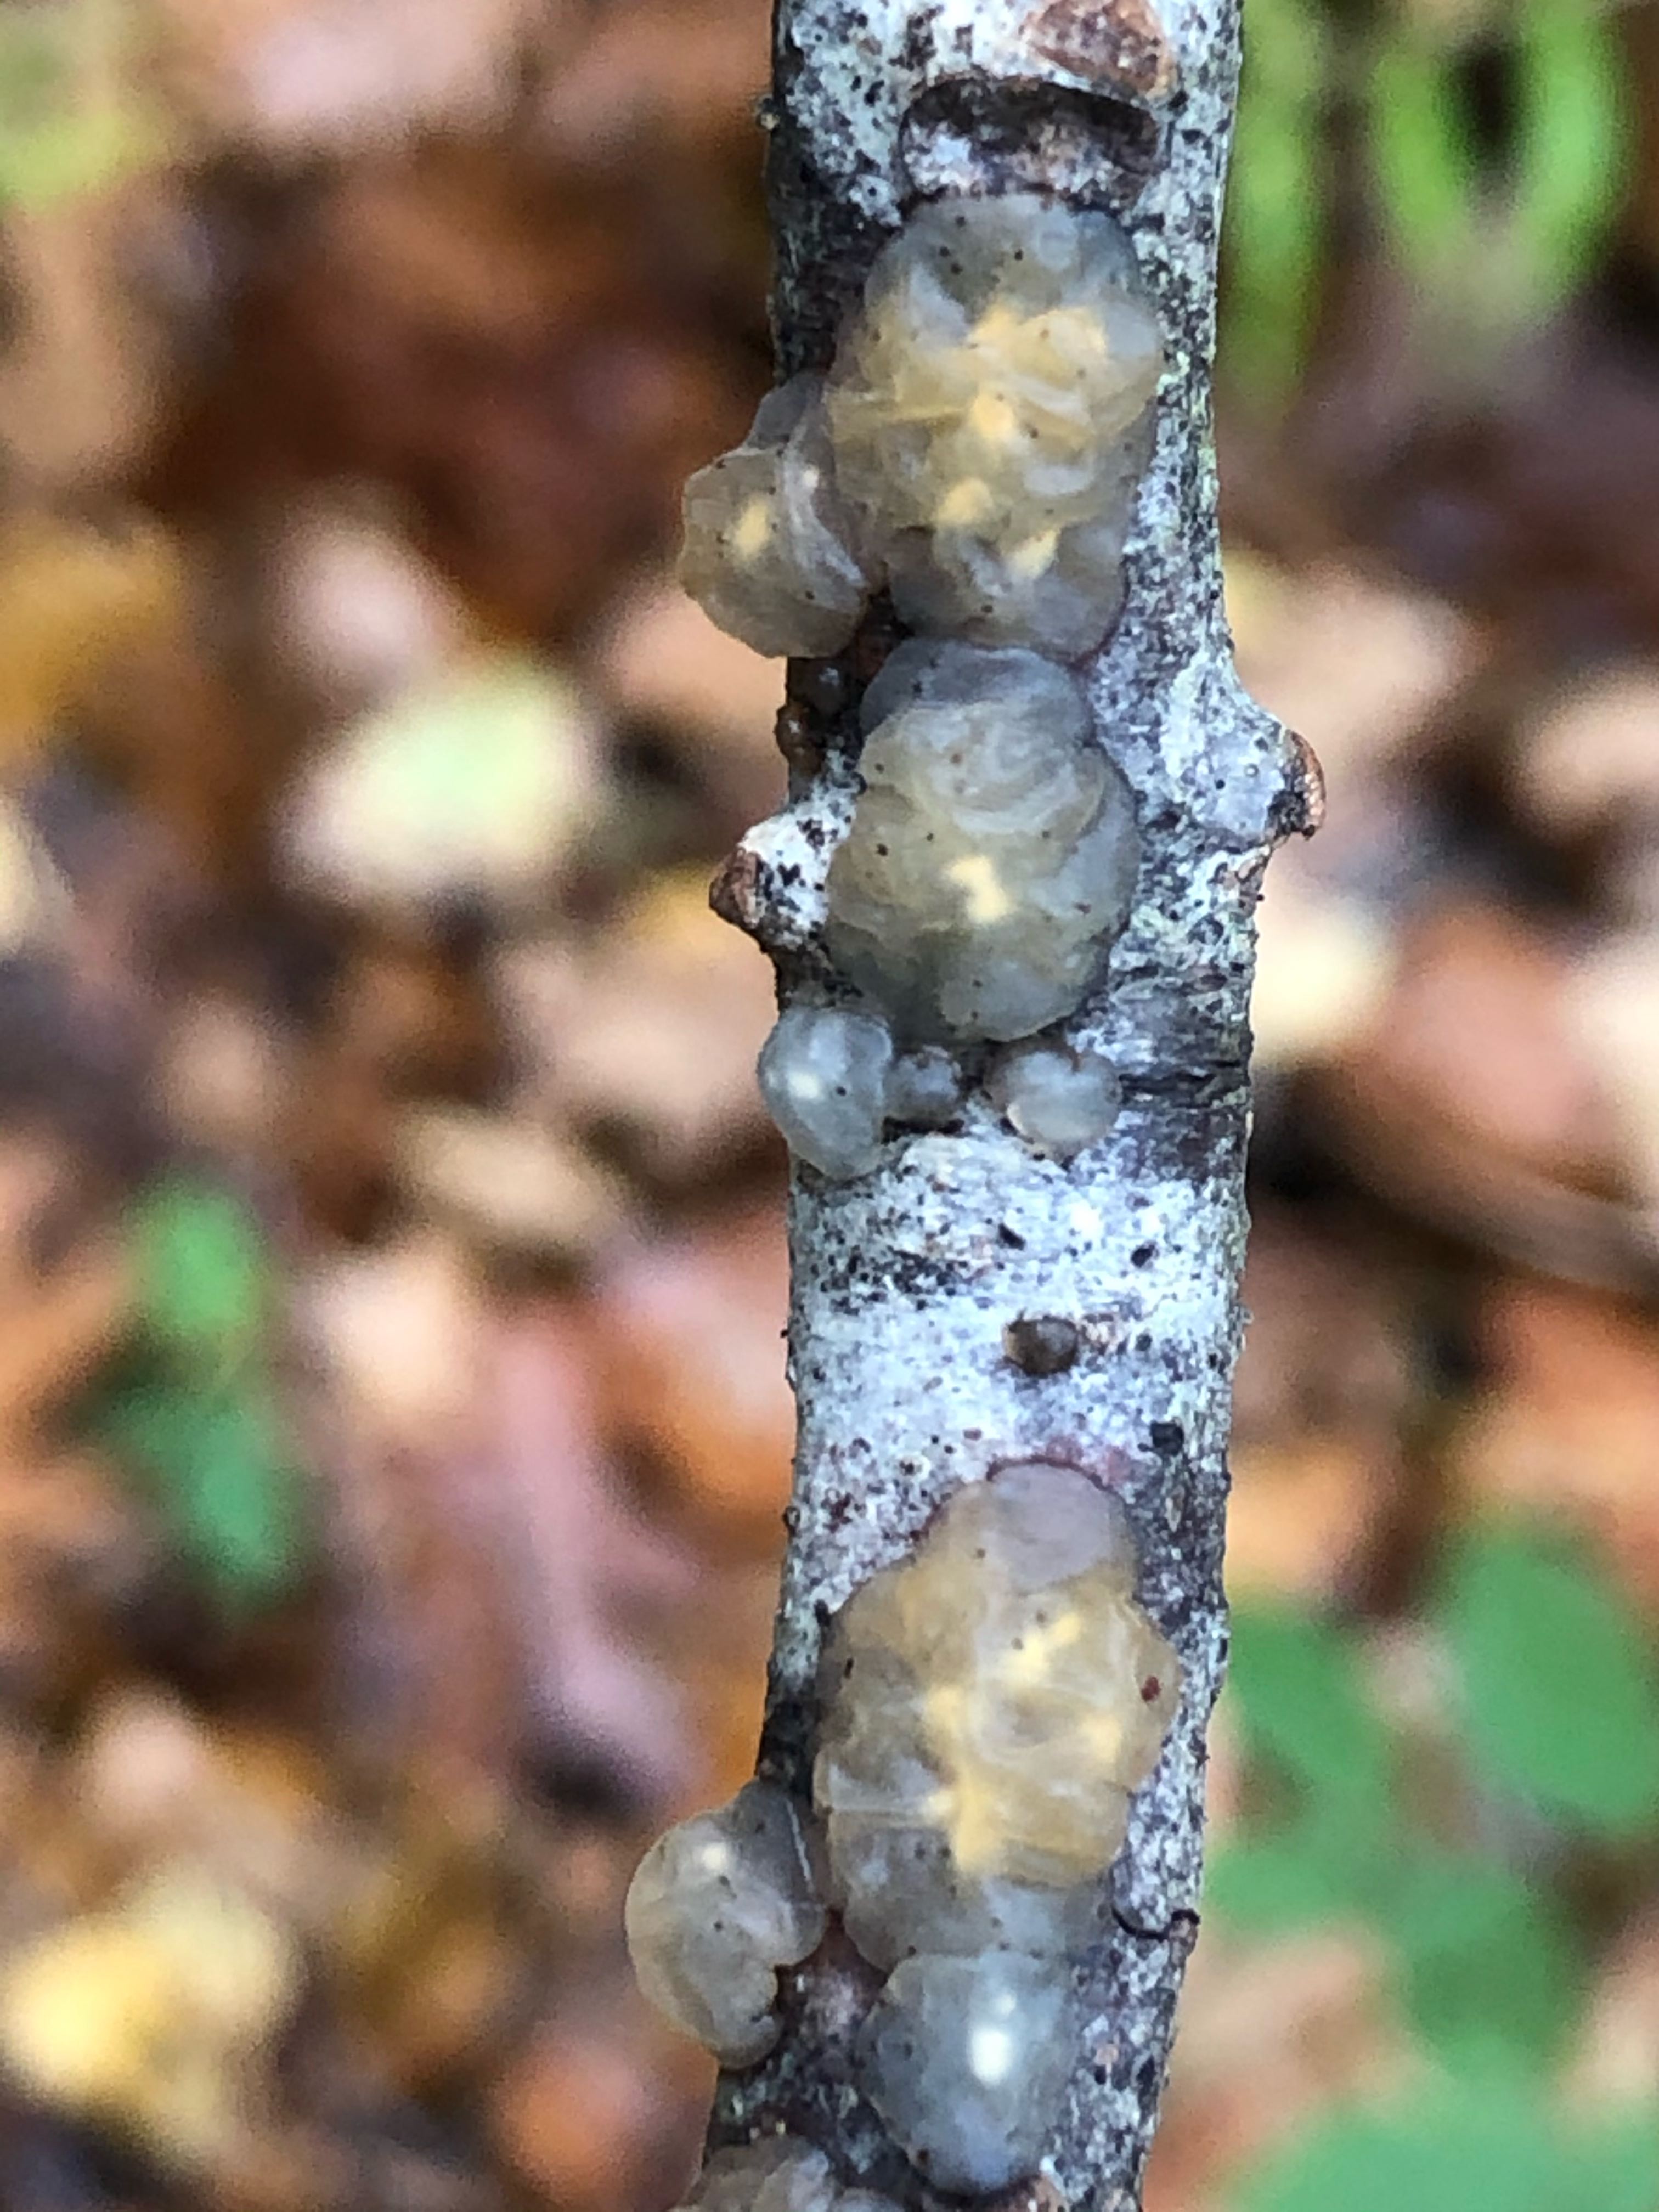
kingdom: Fungi
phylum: Basidiomycota
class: Agaricomycetes
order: Auriculariales
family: Hyaloriaceae
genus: Myxarium
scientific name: Myxarium nucleatum
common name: klar bævretop
